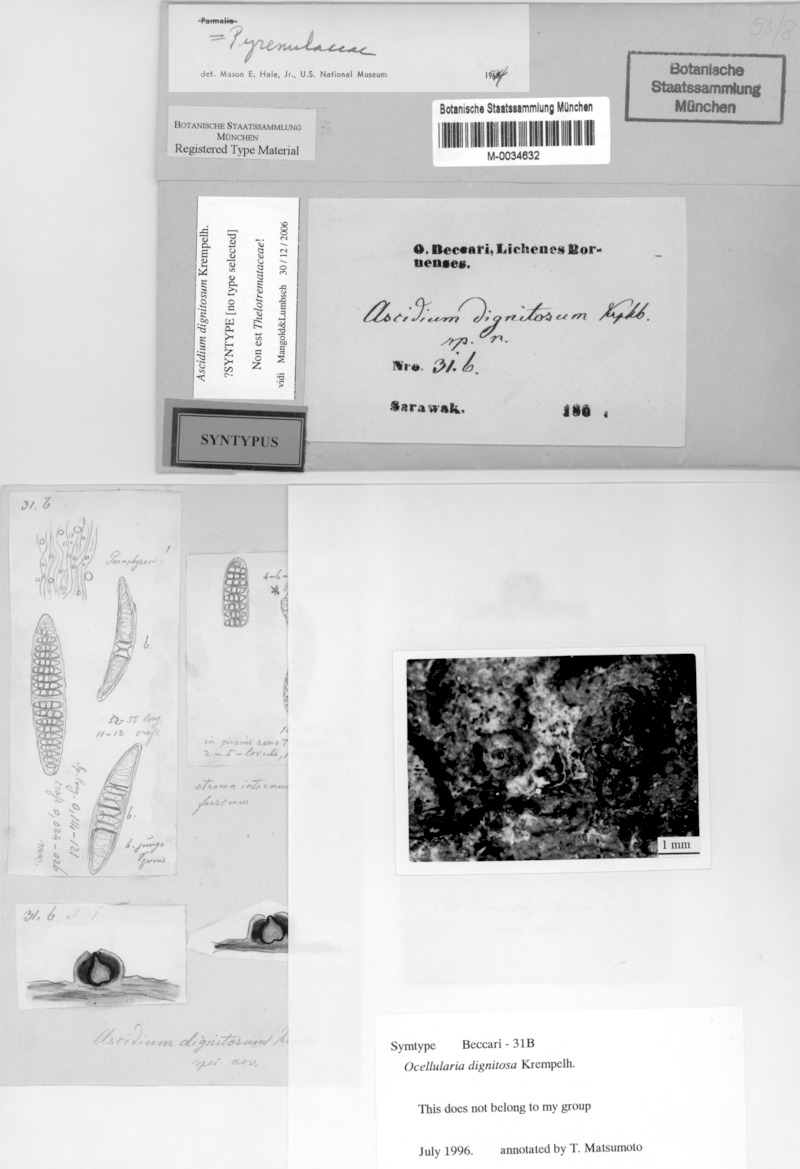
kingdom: Fungi
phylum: Ascomycota
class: Lecanoromycetes
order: Ostropales
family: Graphidaceae
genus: Thelotrema
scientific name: Thelotrema dignitosum
